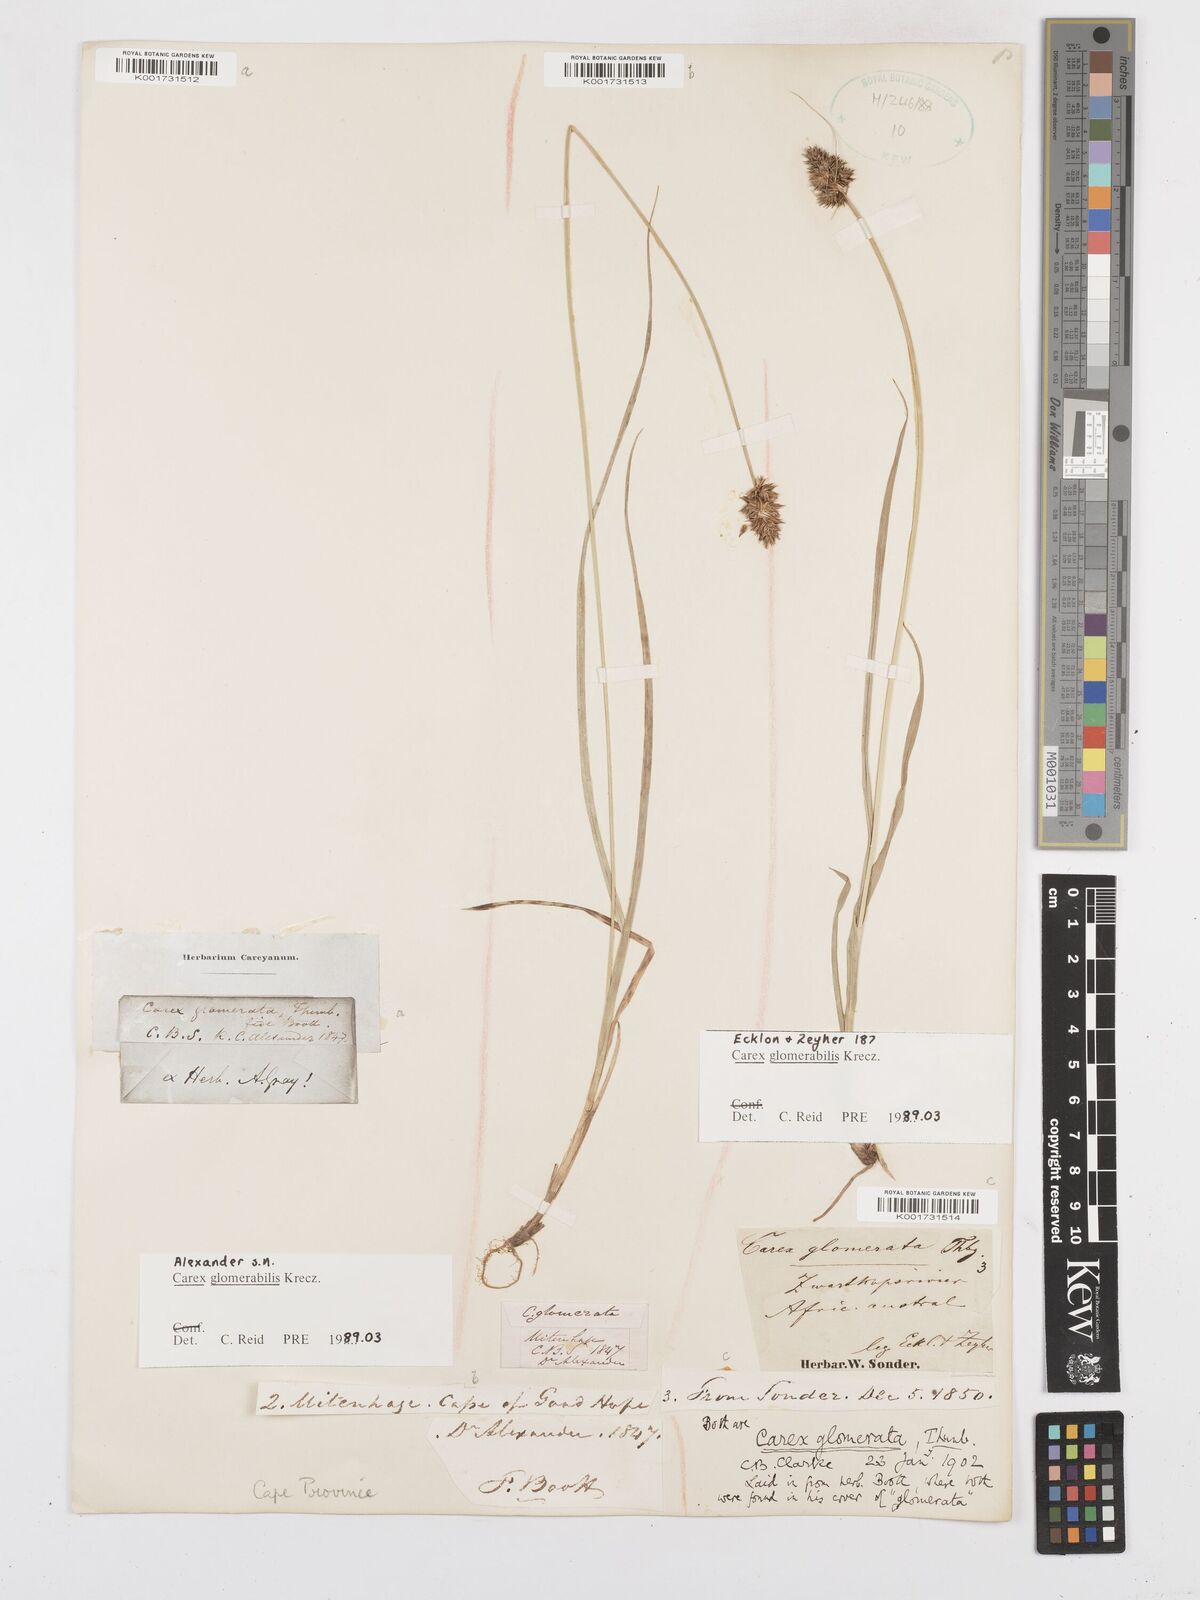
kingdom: Plantae
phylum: Tracheophyta
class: Liliopsida
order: Poales
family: Cyperaceae
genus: Carex
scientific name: Carex glomerata
